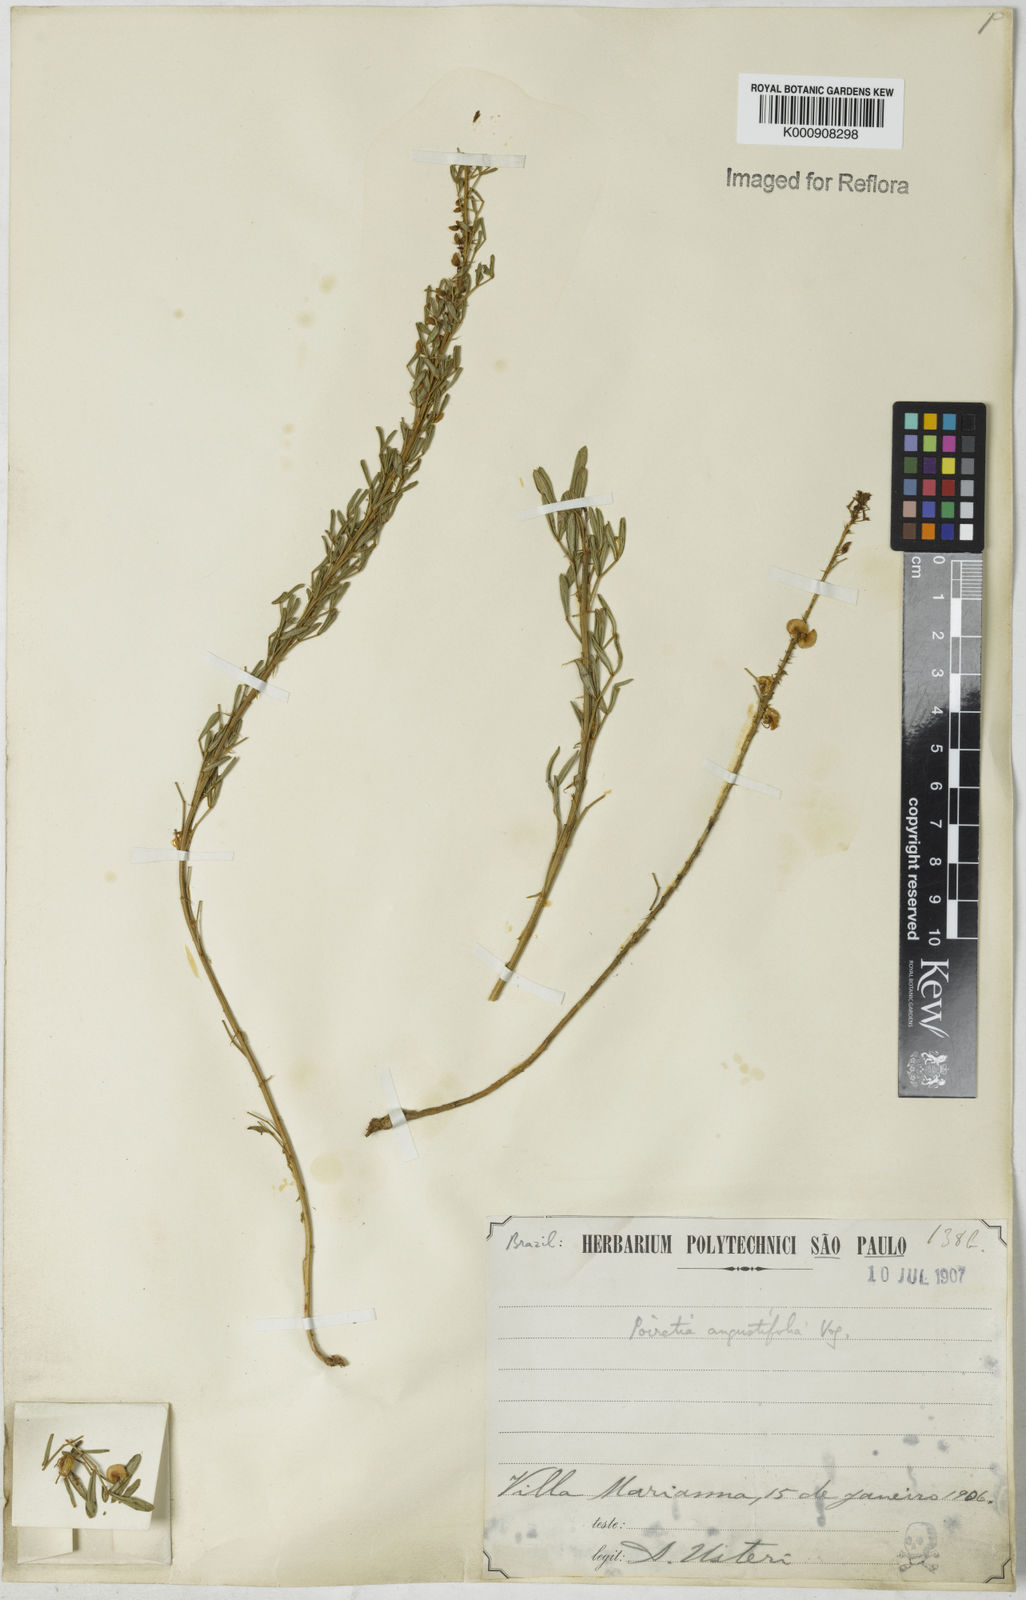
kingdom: Plantae
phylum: Tracheophyta
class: Magnoliopsida
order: Fabales
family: Fabaceae
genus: Poiretia
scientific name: Poiretia angustifolia
